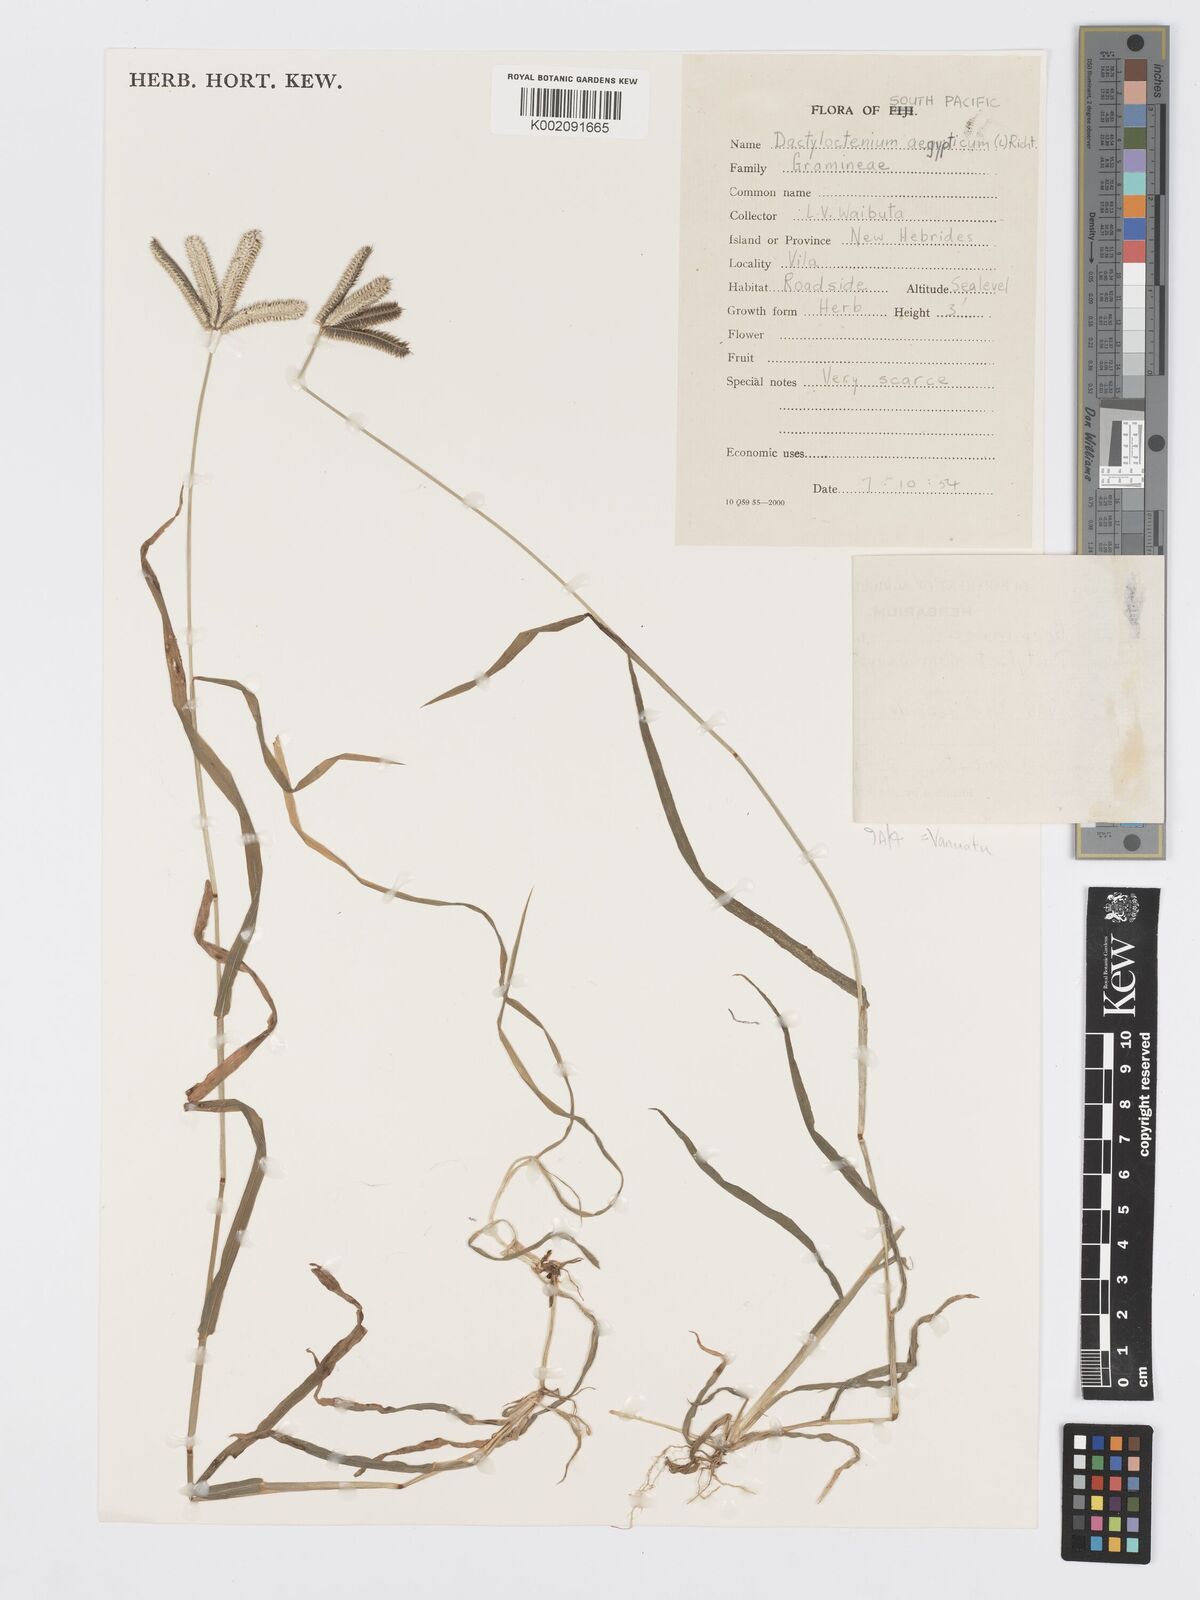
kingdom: Plantae
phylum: Tracheophyta
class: Liliopsida
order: Poales
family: Poaceae
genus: Dactyloctenium
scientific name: Dactyloctenium aegyptium
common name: Egyptian grass
